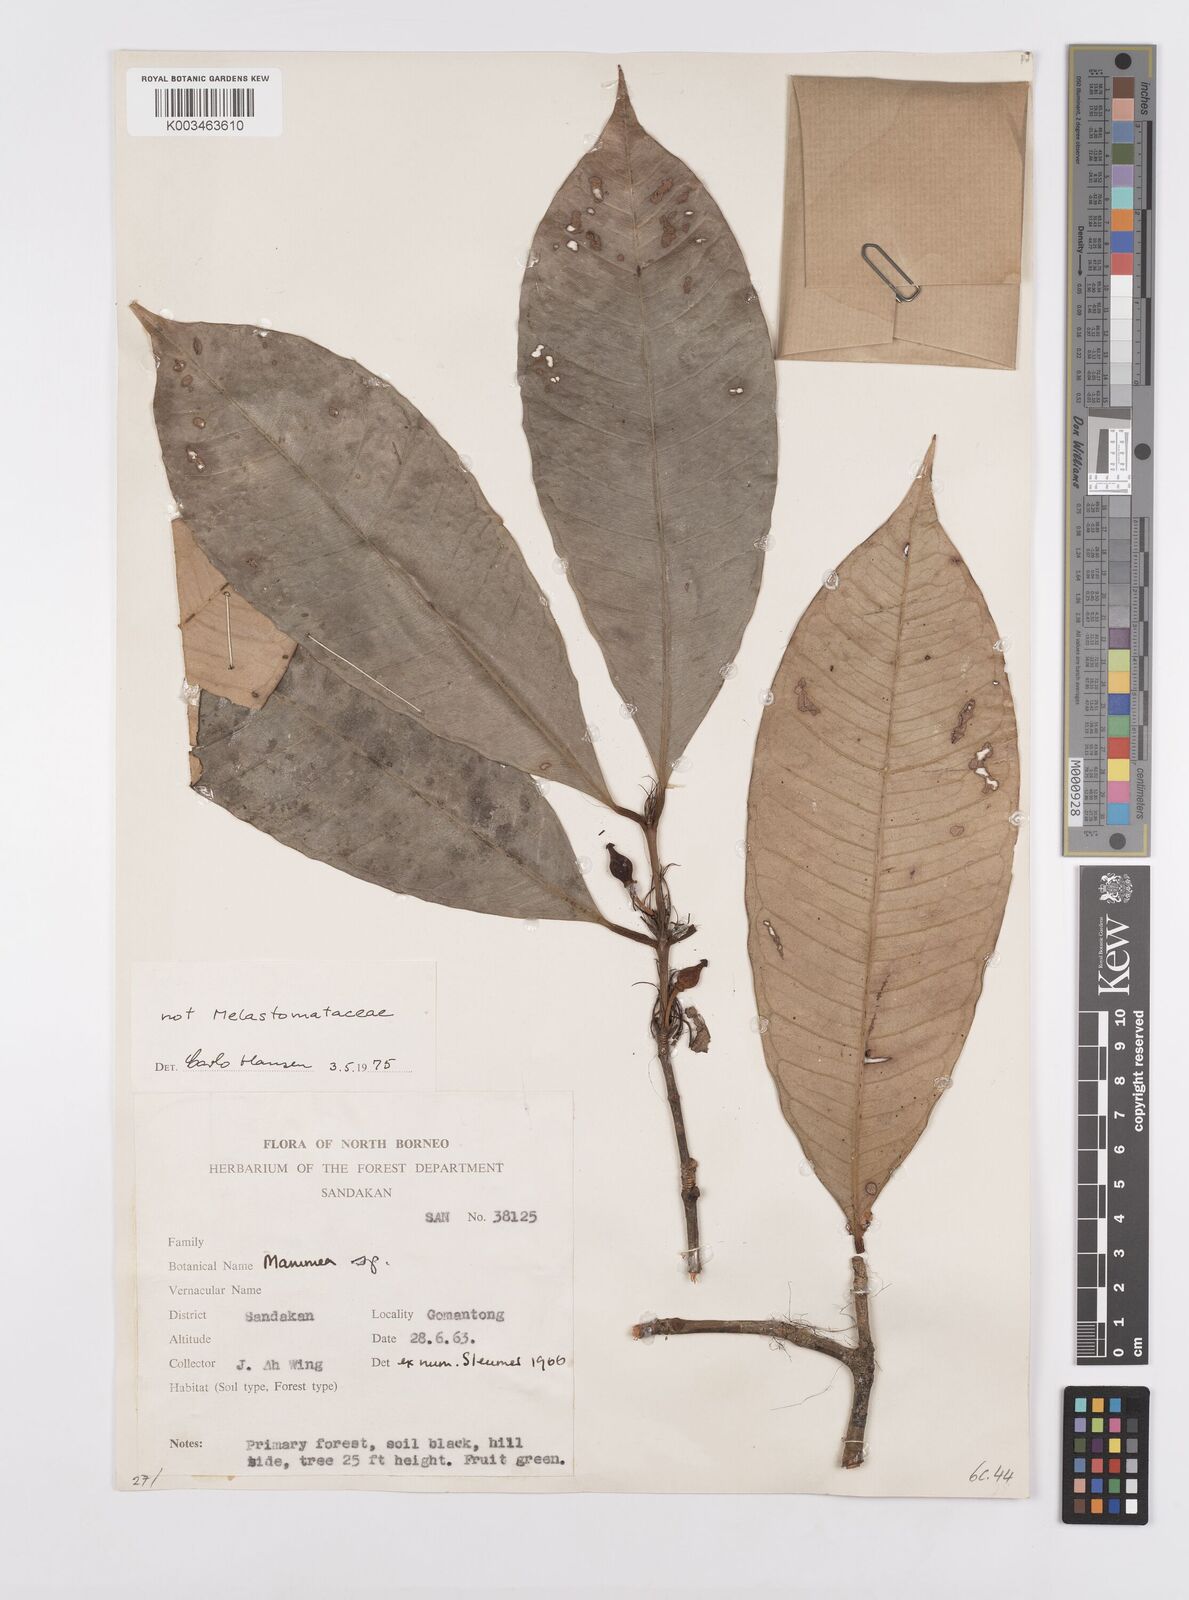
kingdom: Plantae
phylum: Tracheophyta
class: Magnoliopsida
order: Malpighiales
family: Calophyllaceae
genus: Mammea
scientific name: Mammea calciphila
